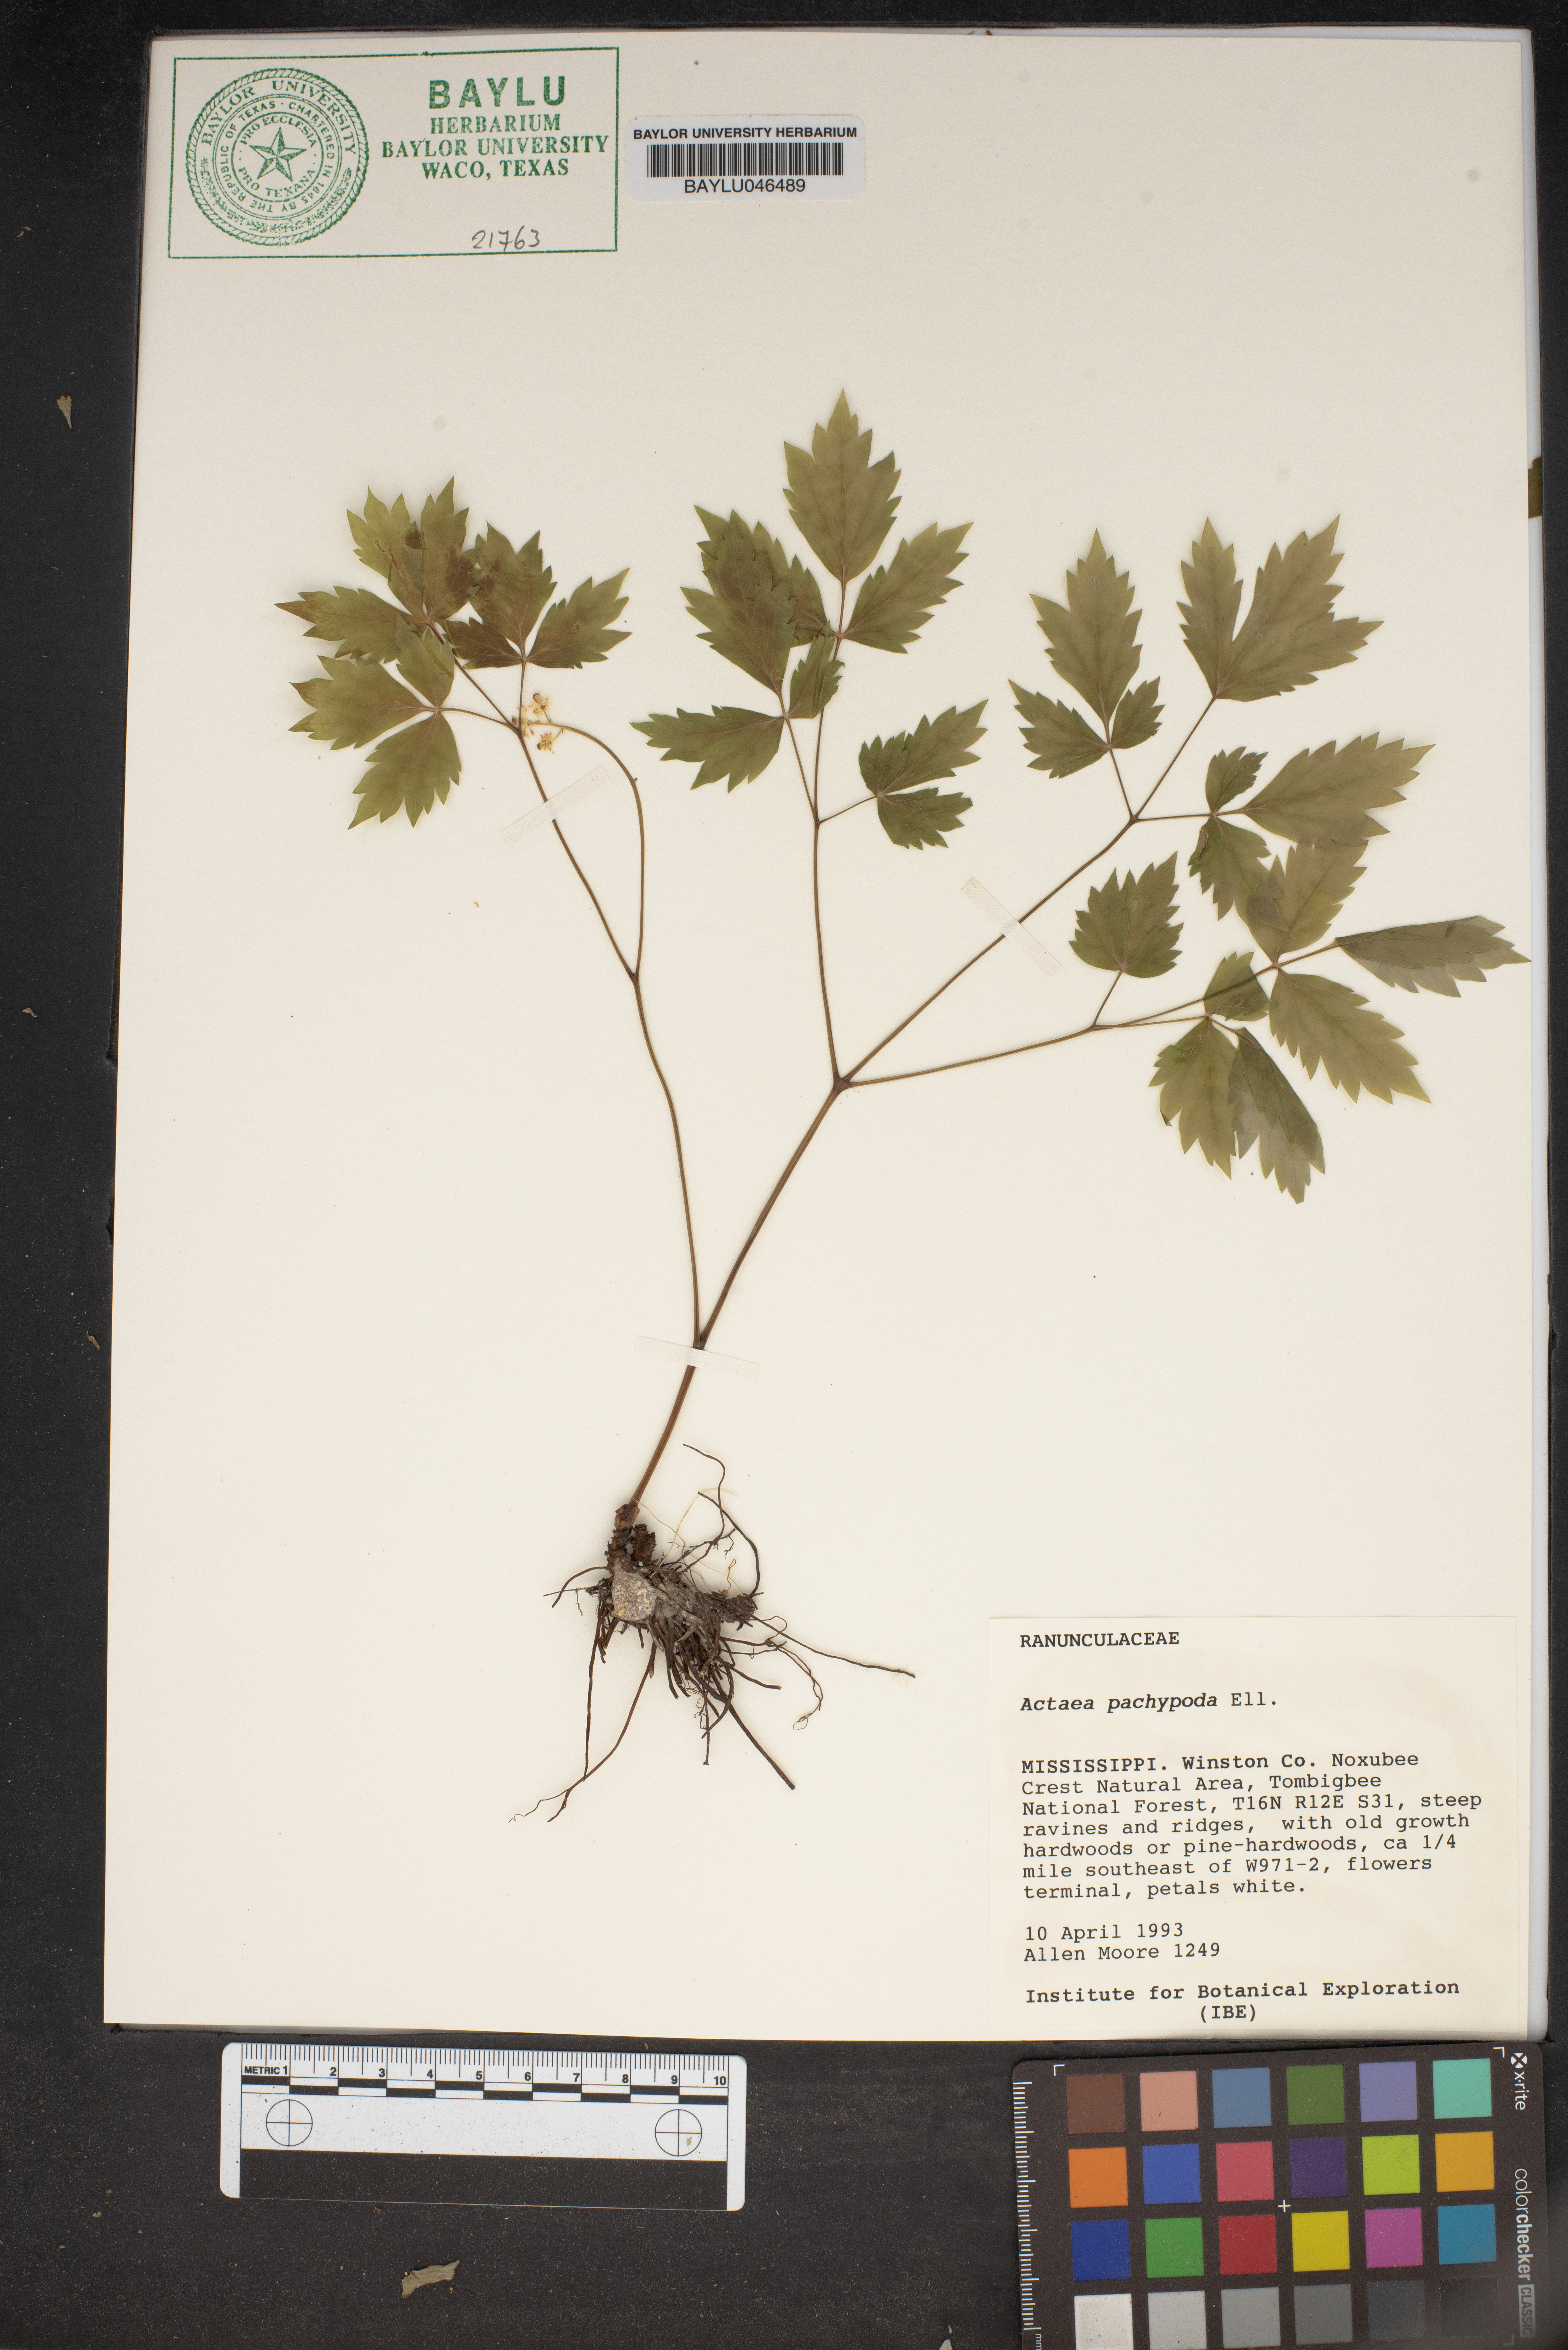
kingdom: Plantae
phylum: Tracheophyta
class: Magnoliopsida
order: Ranunculales
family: Ranunculaceae
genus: Actaea
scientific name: Actaea pachypoda
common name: Doll's-eyes
